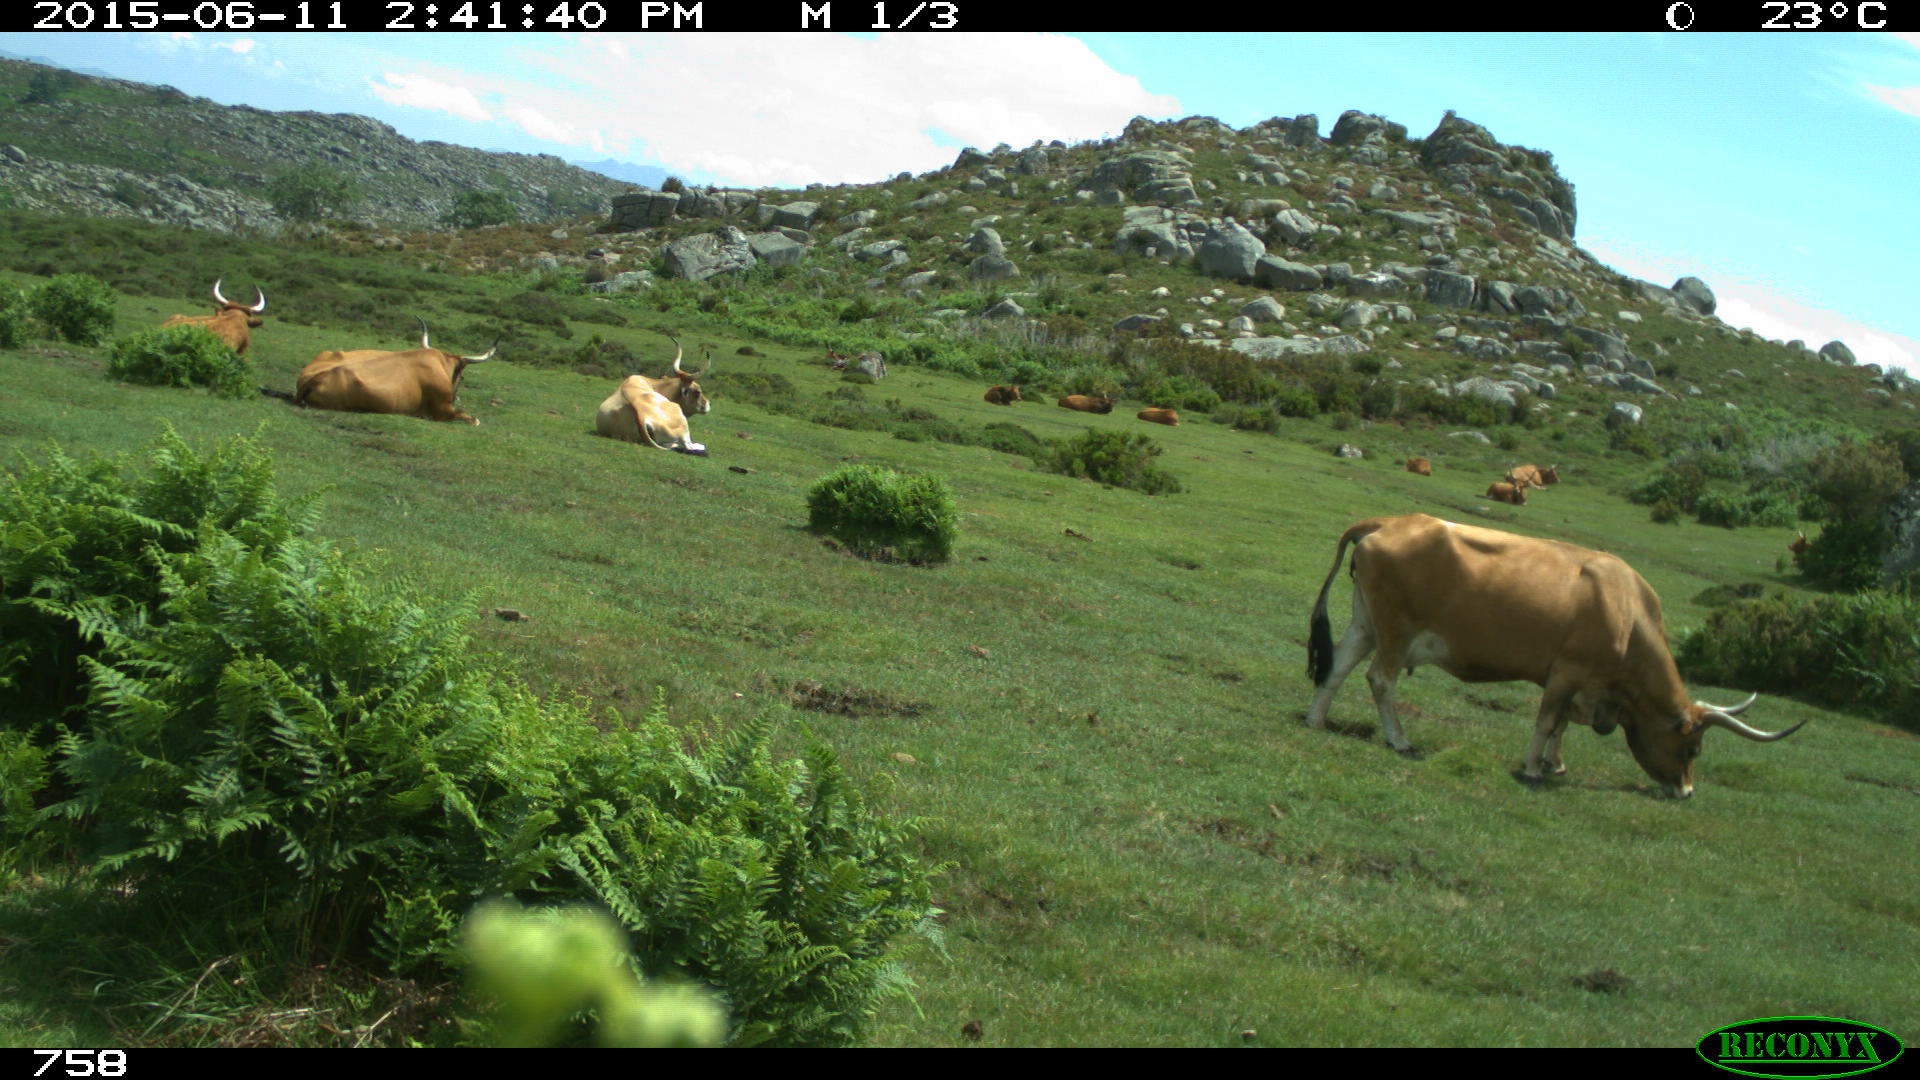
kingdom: Animalia
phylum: Chordata
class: Mammalia
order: Artiodactyla
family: Bovidae
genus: Bos
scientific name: Bos taurus
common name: Domesticated cattle
